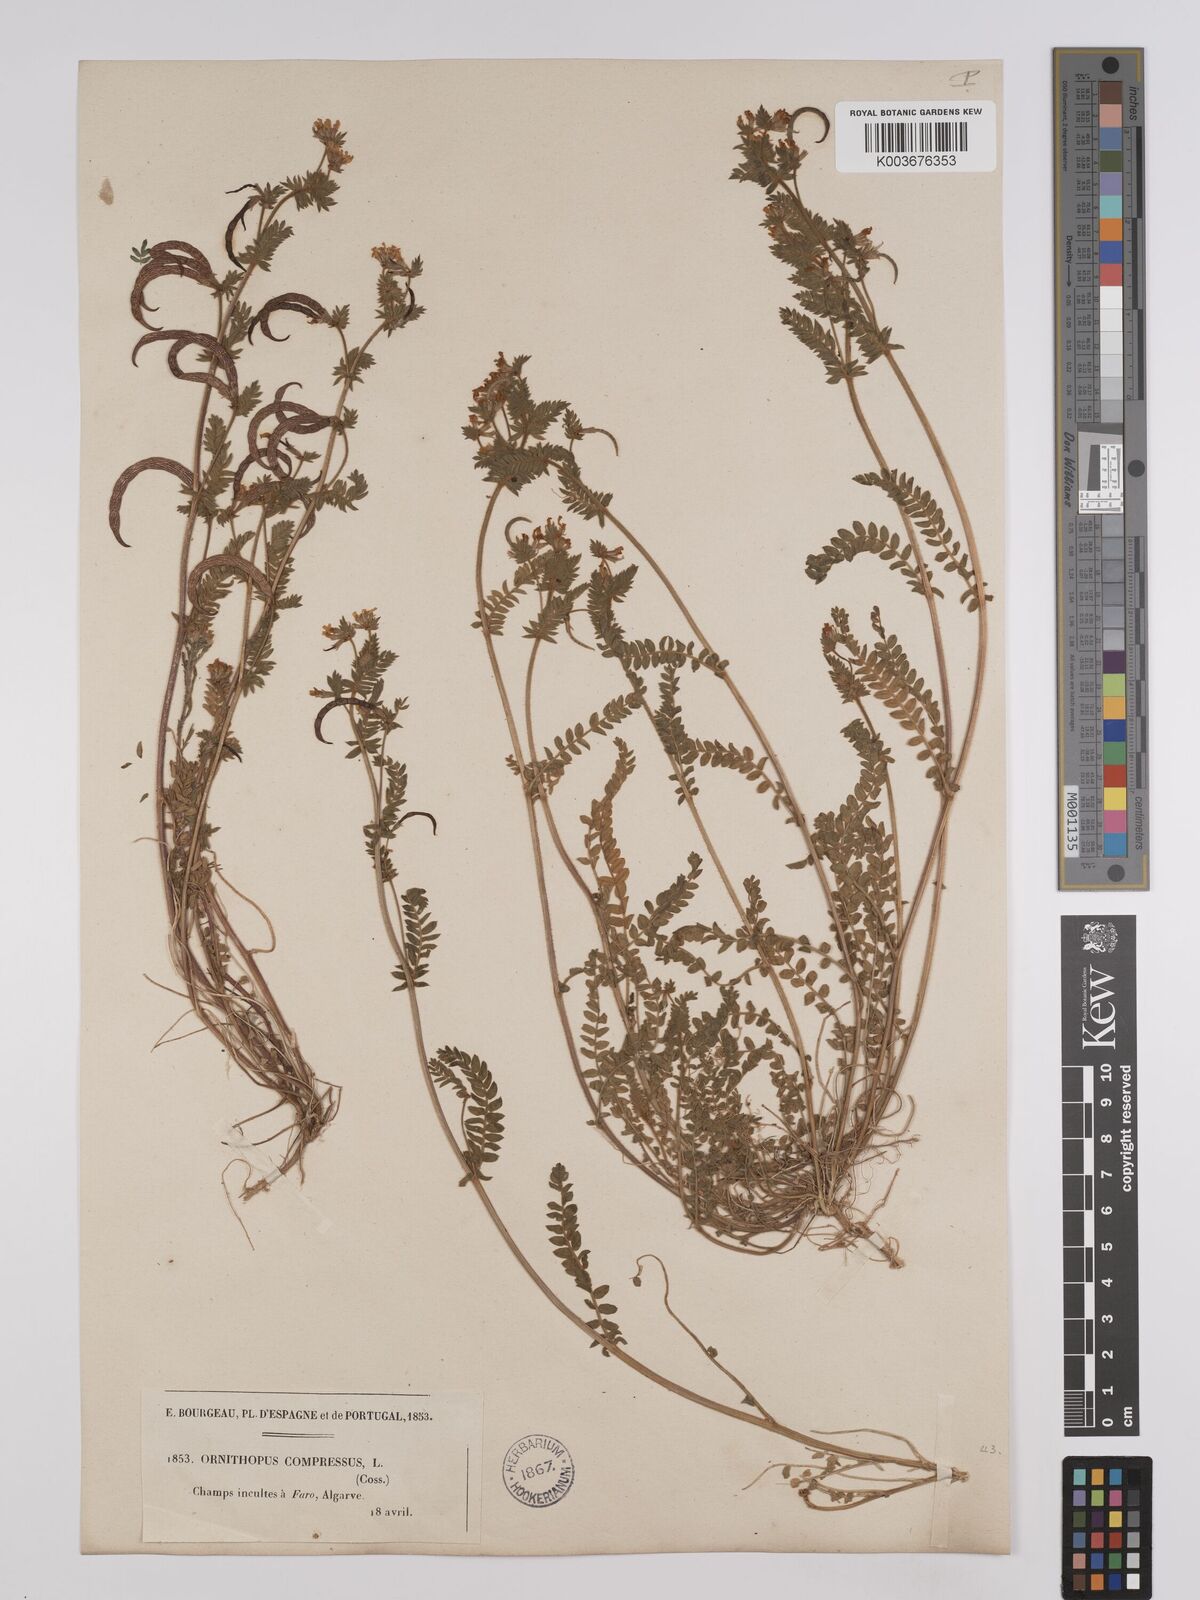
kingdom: Plantae
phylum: Tracheophyta
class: Magnoliopsida
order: Fabales
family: Fabaceae
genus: Ornithopus
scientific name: Ornithopus compressus
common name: Yellow serradella
